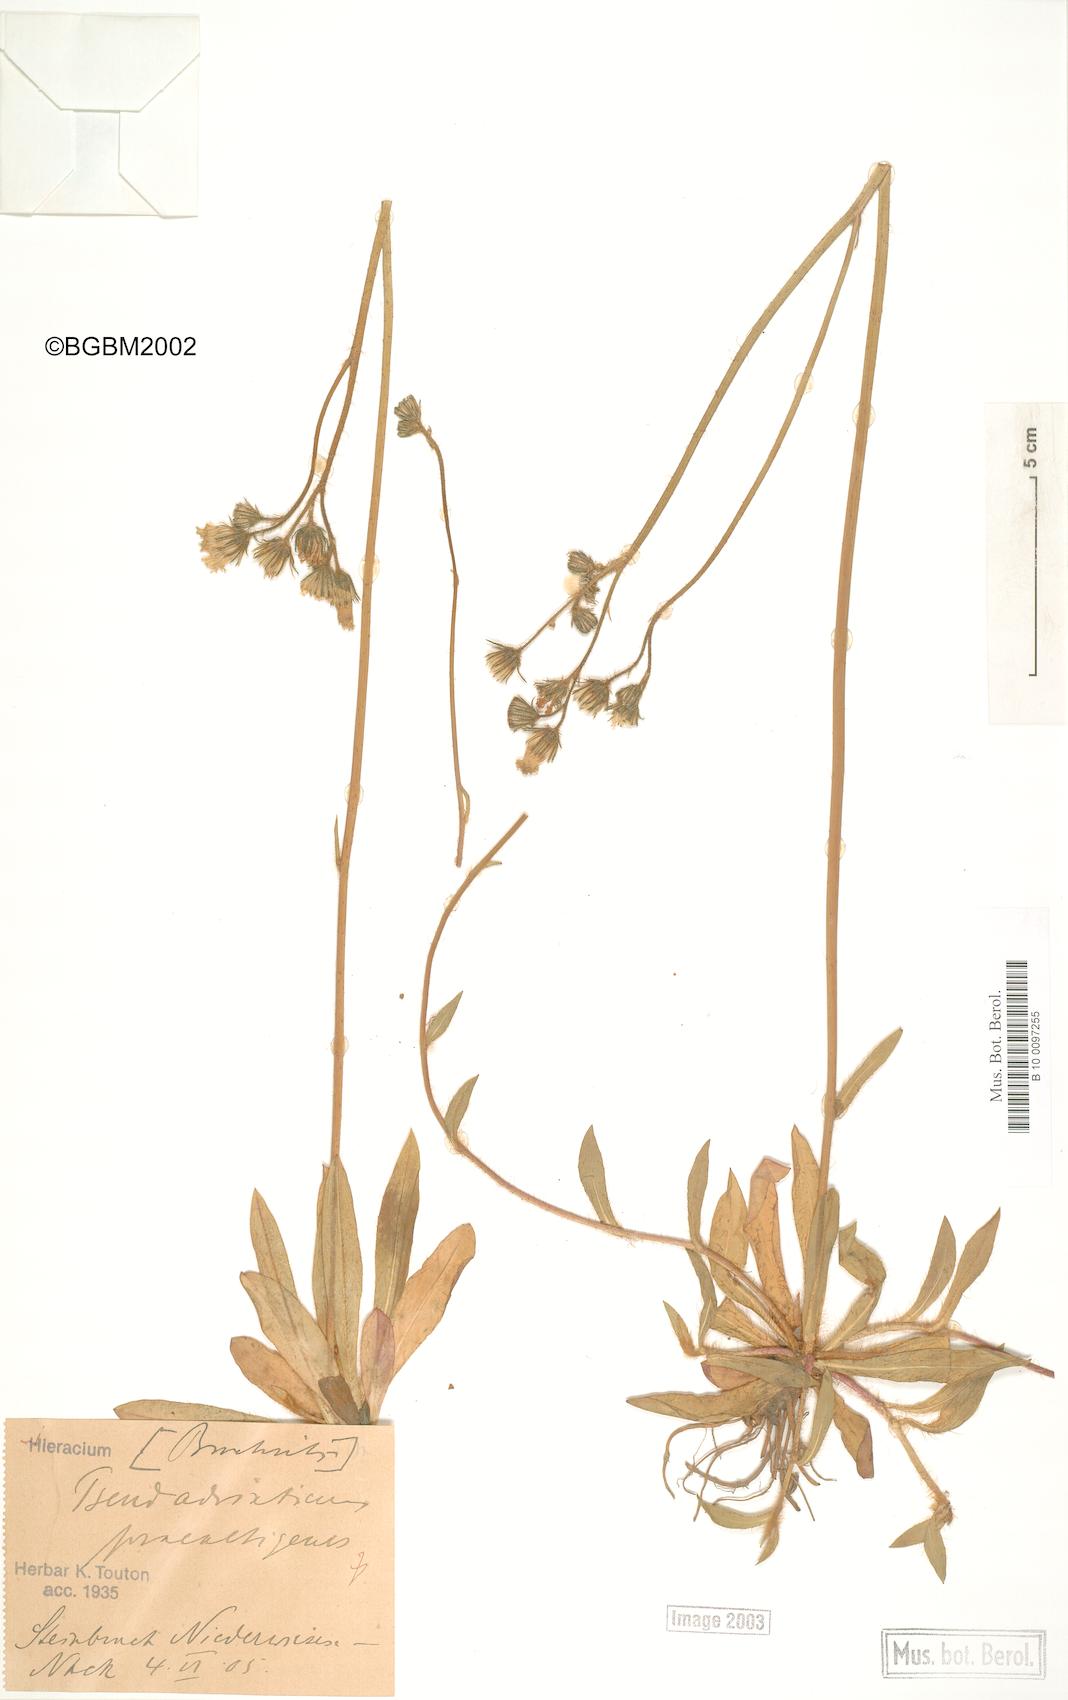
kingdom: Plantae
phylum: Tracheophyta
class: Magnoliopsida
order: Asterales
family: Asteraceae
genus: Pilosella
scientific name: Pilosella acutifolia
